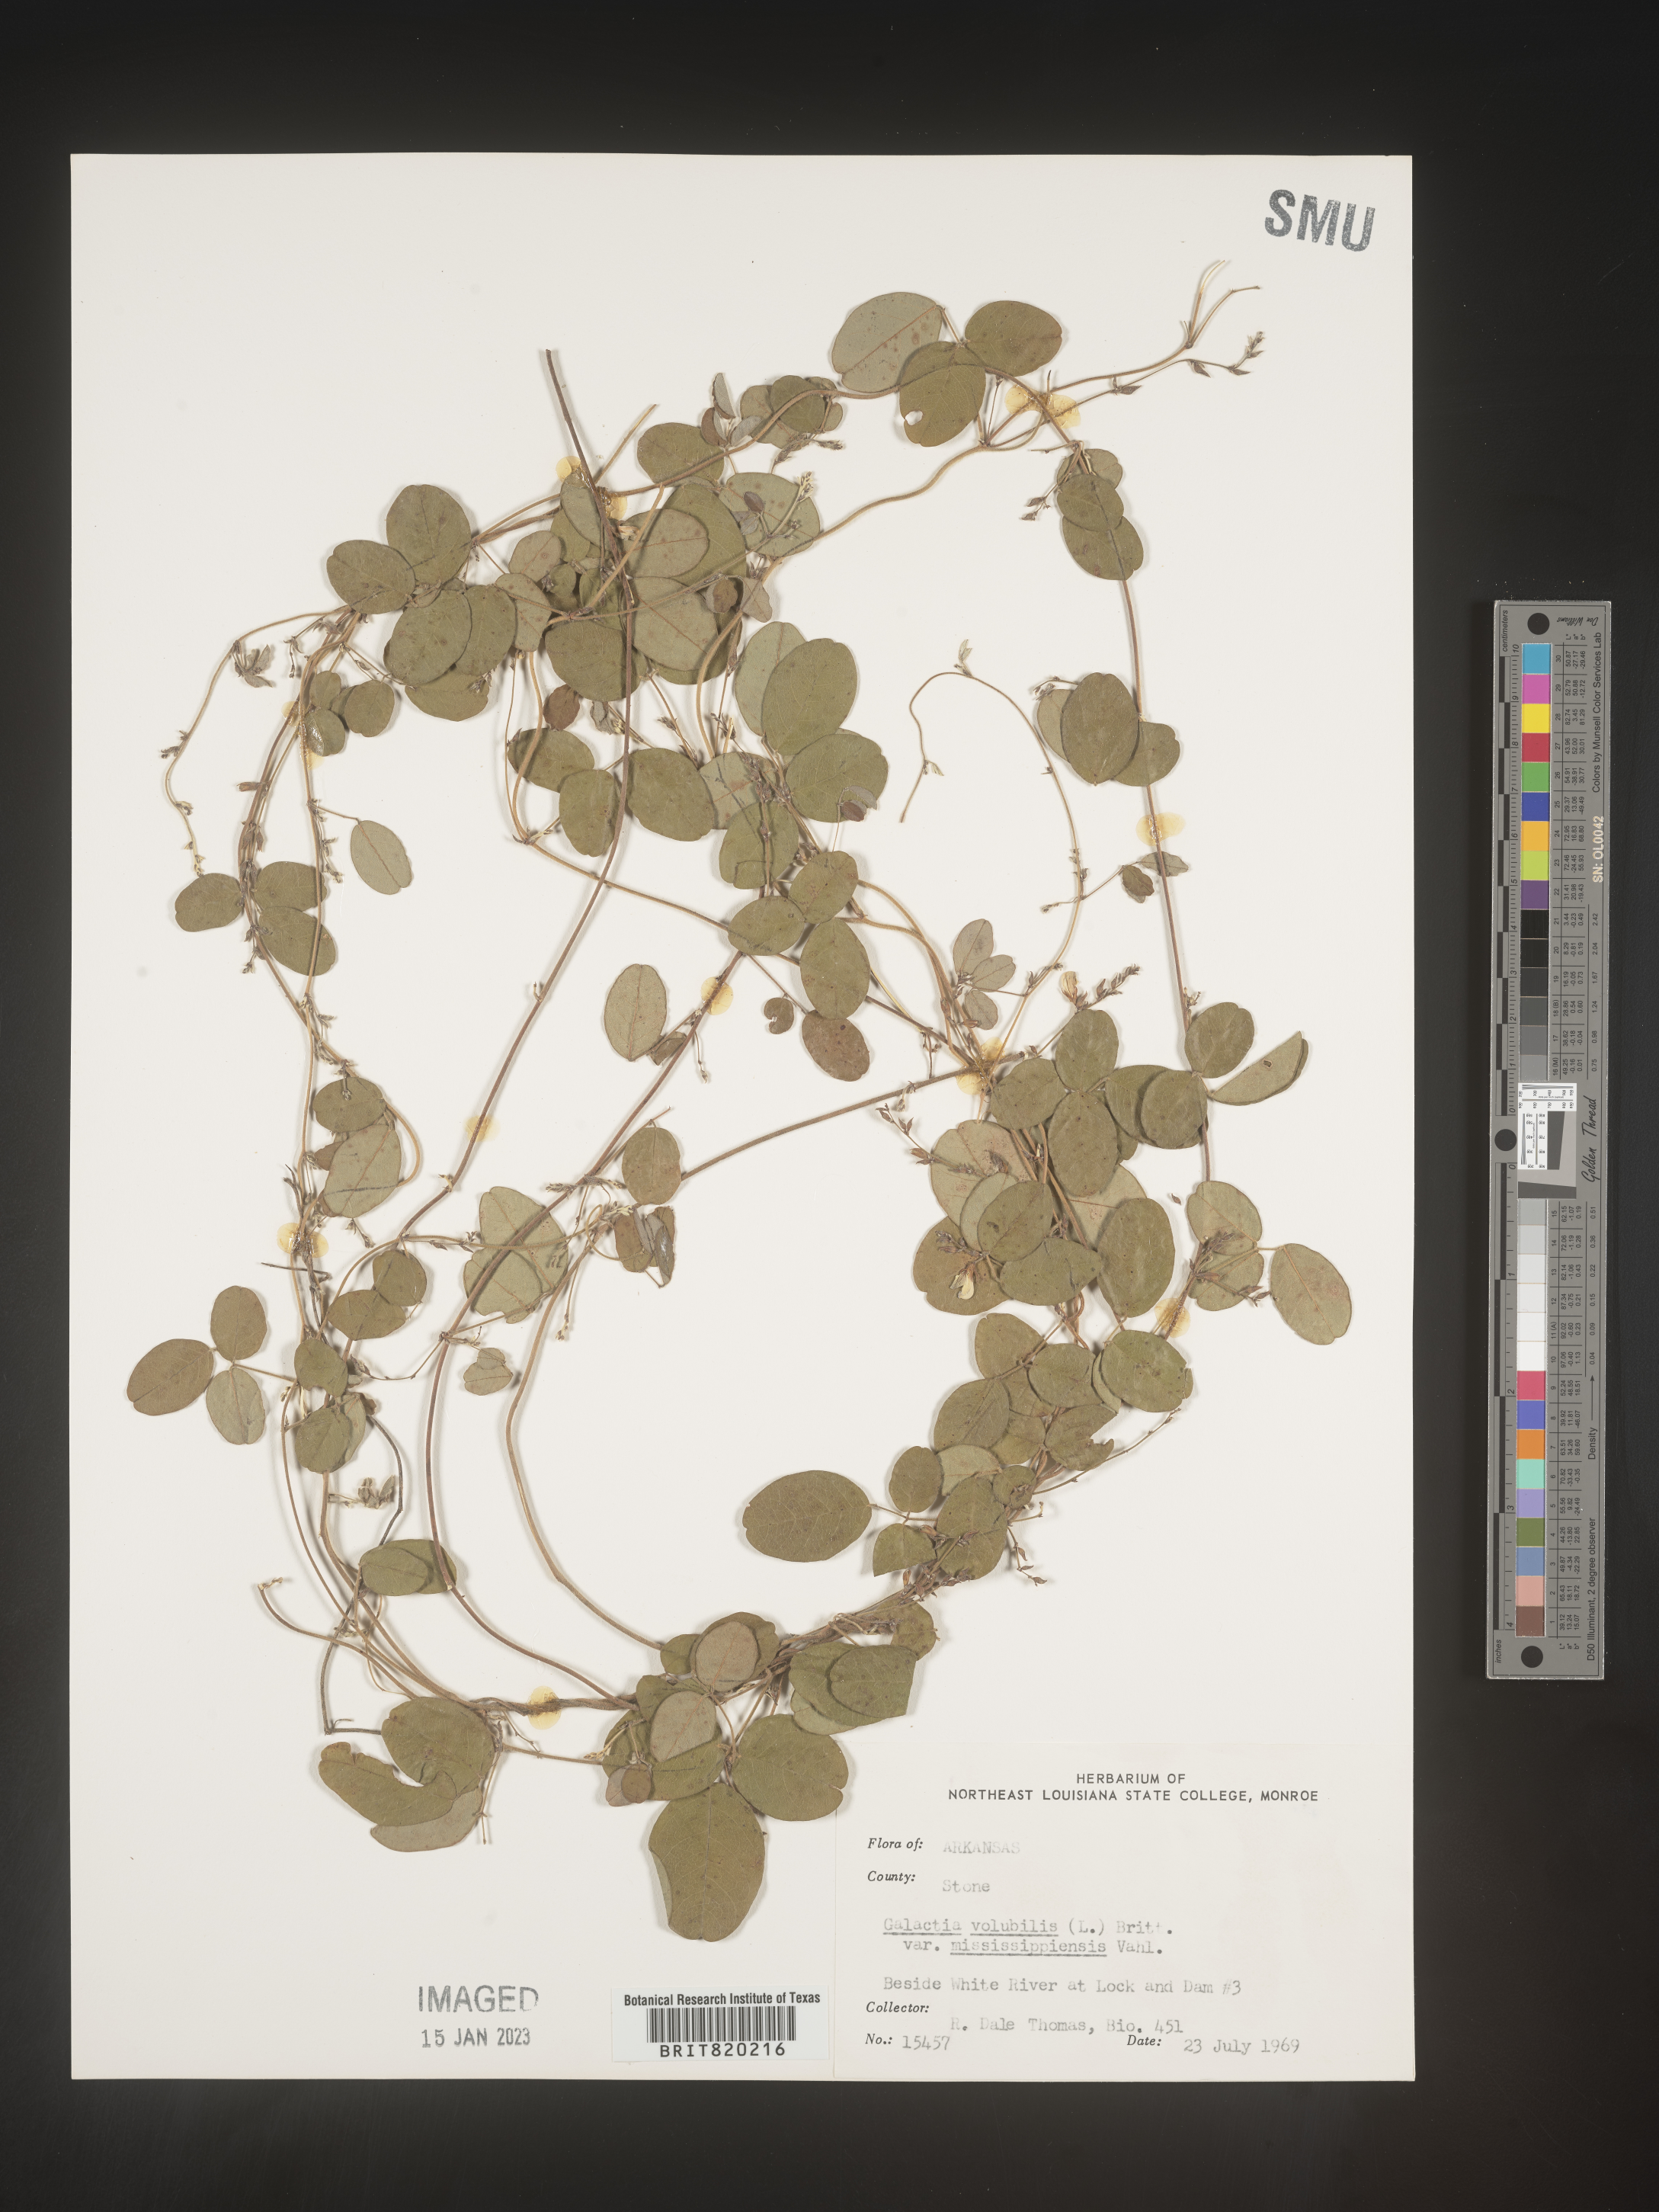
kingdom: Plantae
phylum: Tracheophyta
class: Magnoliopsida
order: Fabales
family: Fabaceae
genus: Galactia
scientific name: Galactia volubilis
